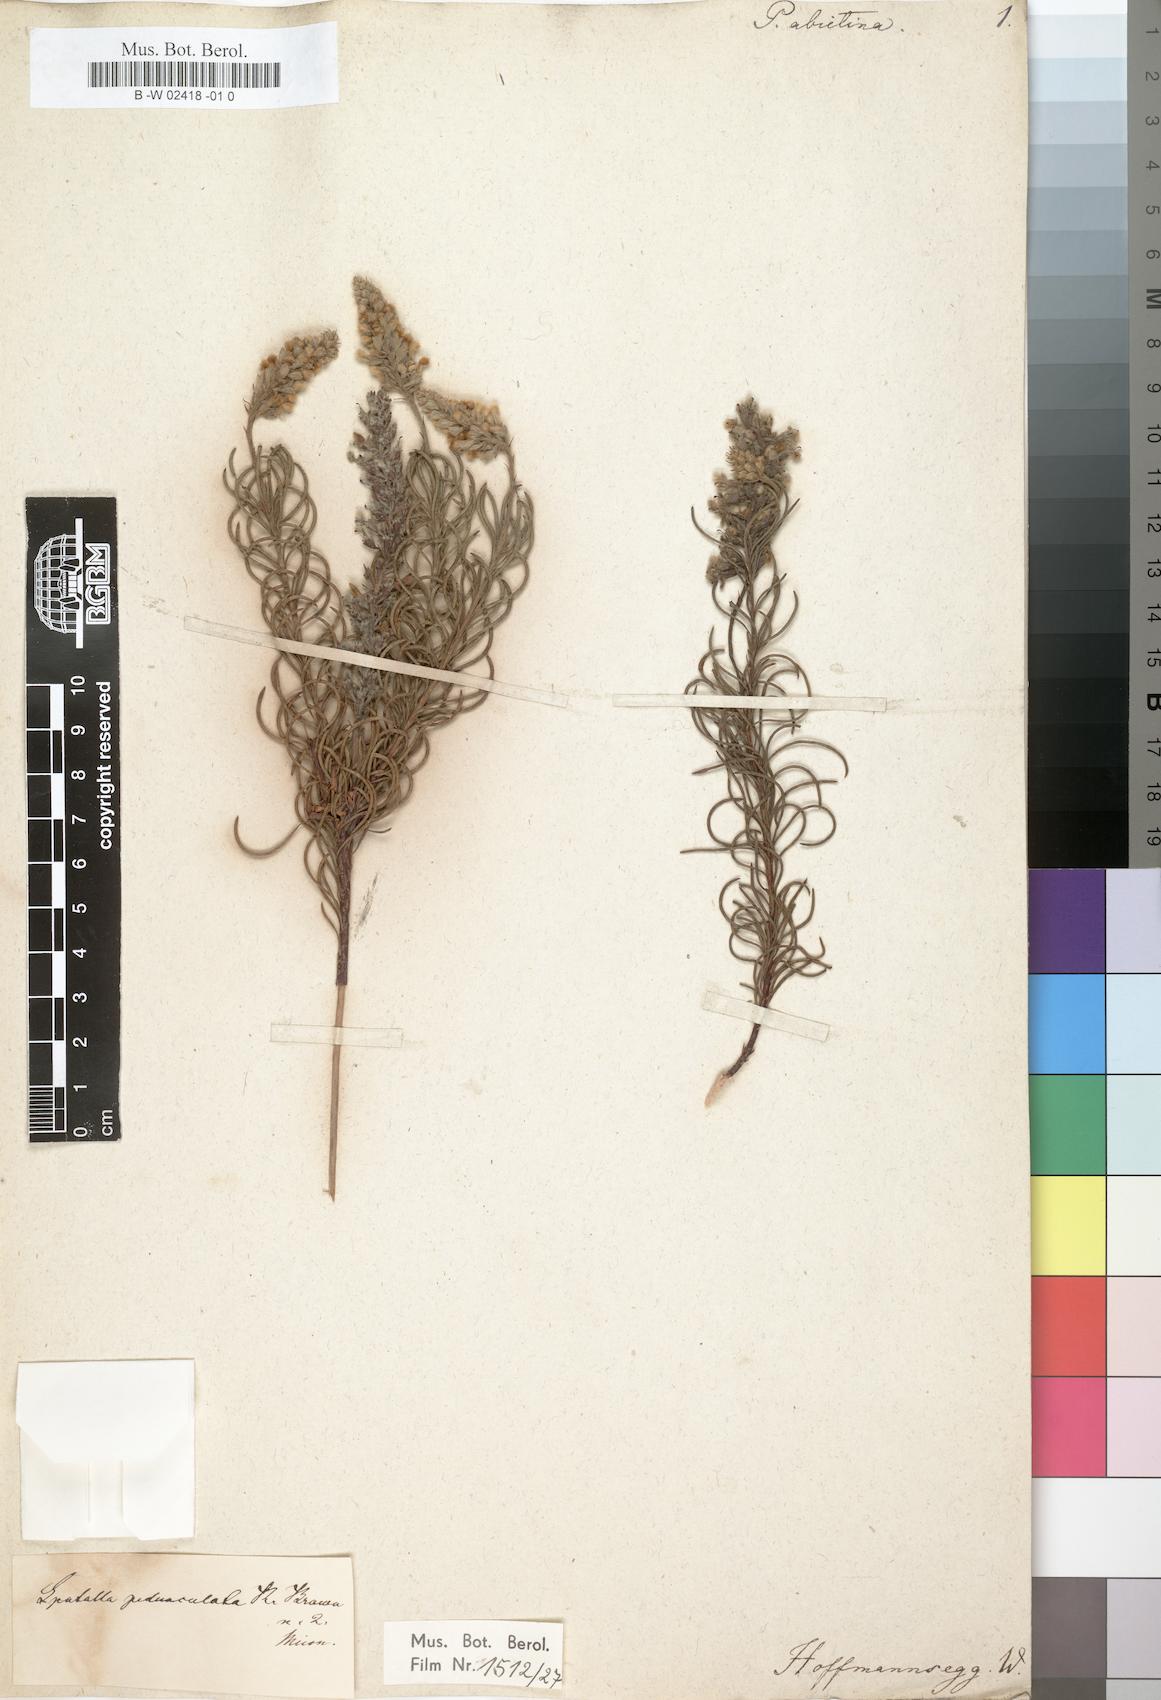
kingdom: Plantae
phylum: Tracheophyta
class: Magnoliopsida
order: Proteales
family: Proteaceae
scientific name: Proteaceae
